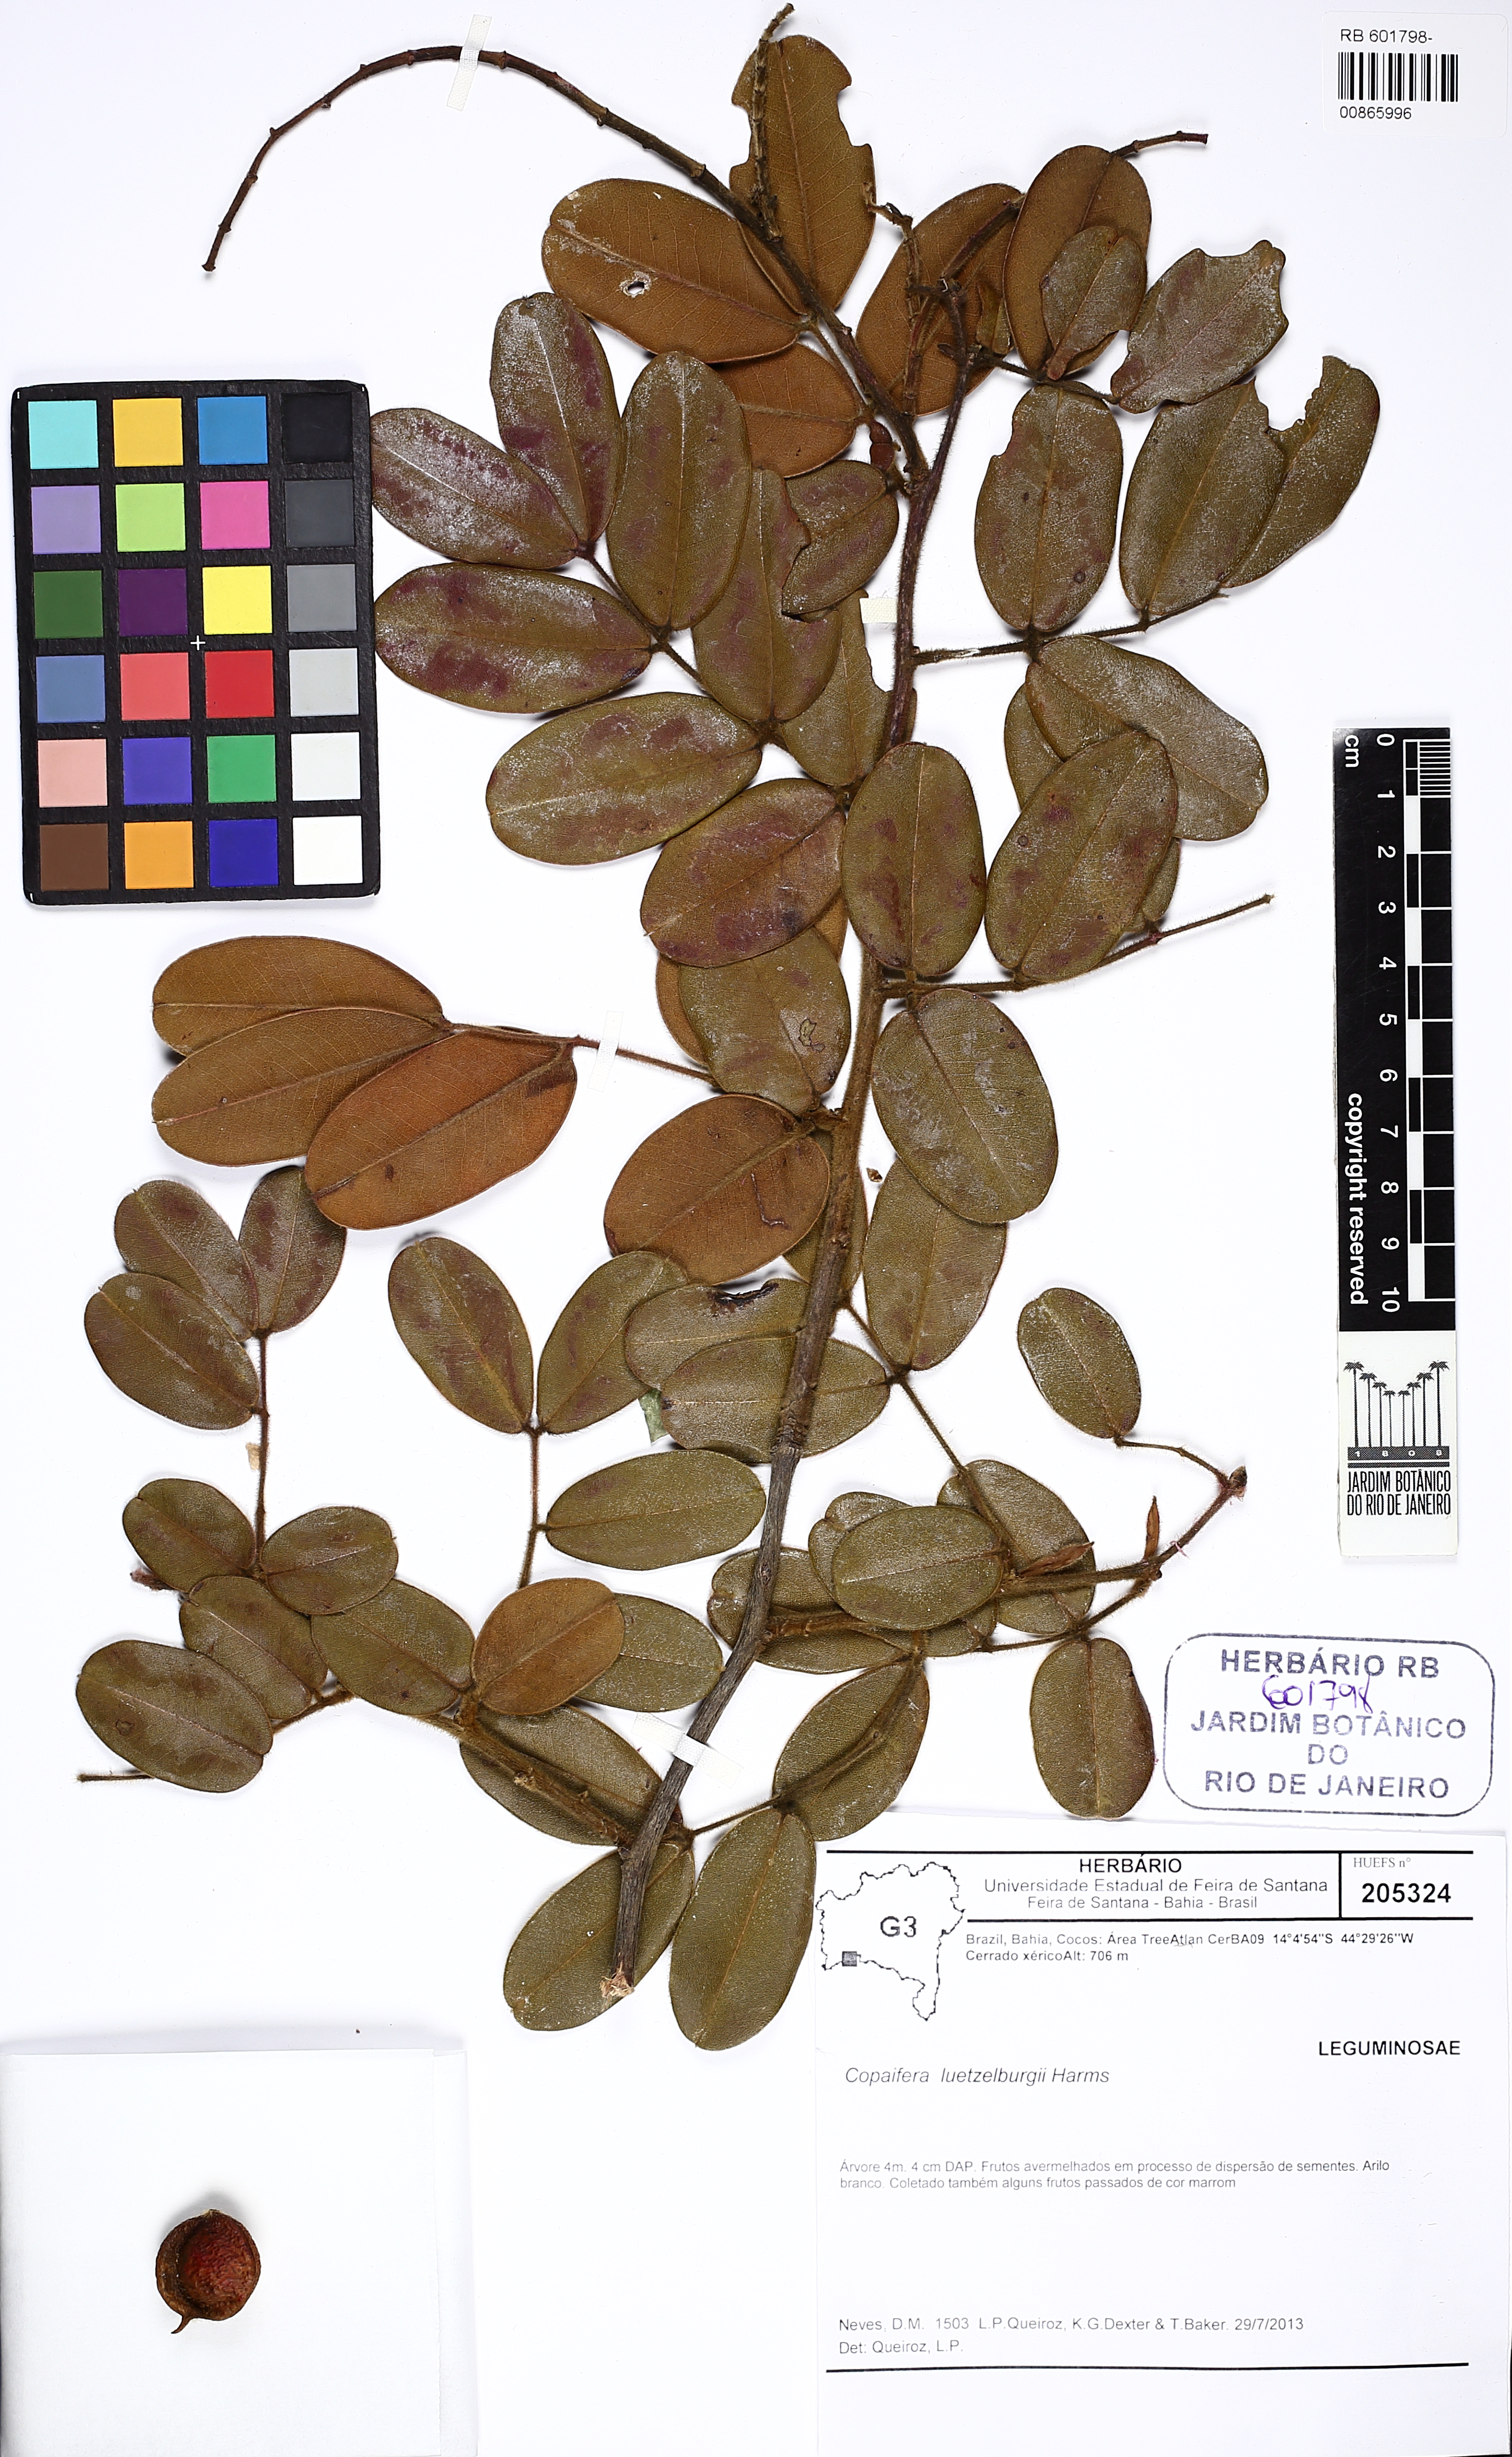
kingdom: Plantae
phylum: Tracheophyta
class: Magnoliopsida
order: Fabales
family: Fabaceae
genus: Copaifera
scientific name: Copaifera luetzelburgii
